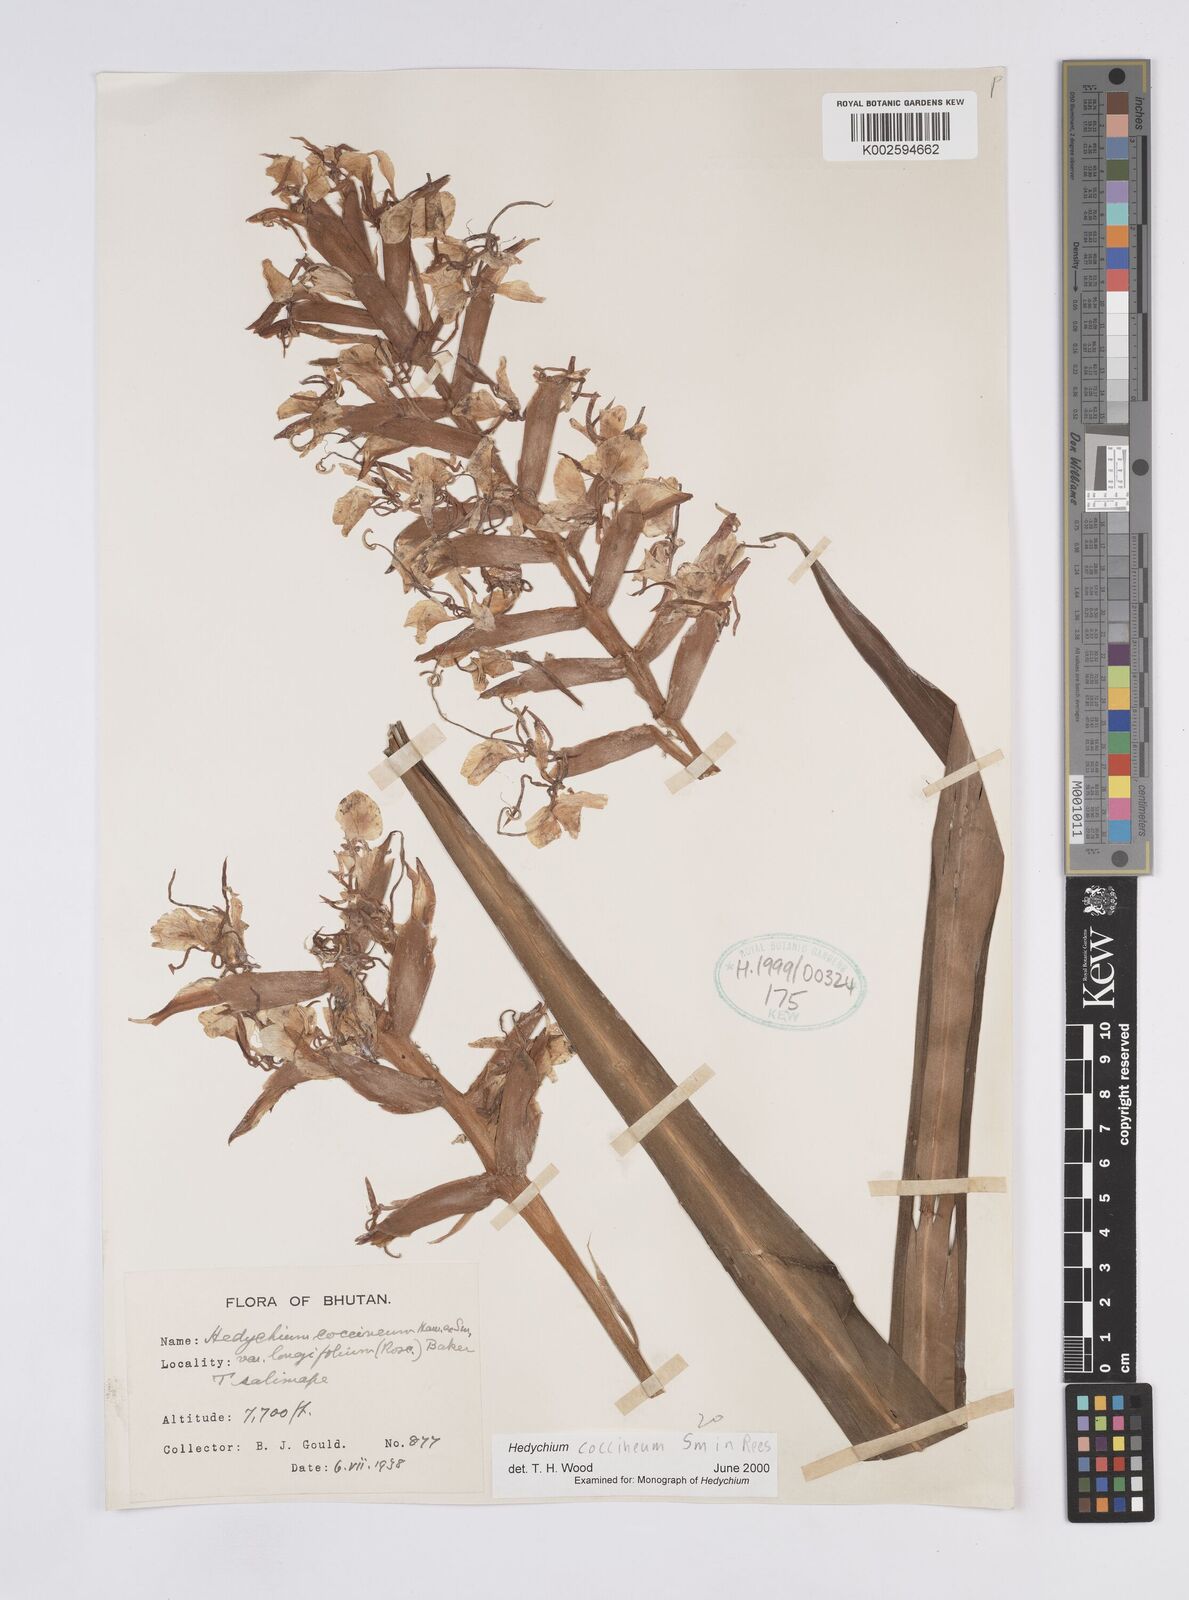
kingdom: Plantae
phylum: Tracheophyta
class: Liliopsida
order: Zingiberales
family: Zingiberaceae
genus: Hedychium
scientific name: Hedychium coccineum
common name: Red ginger-lily
